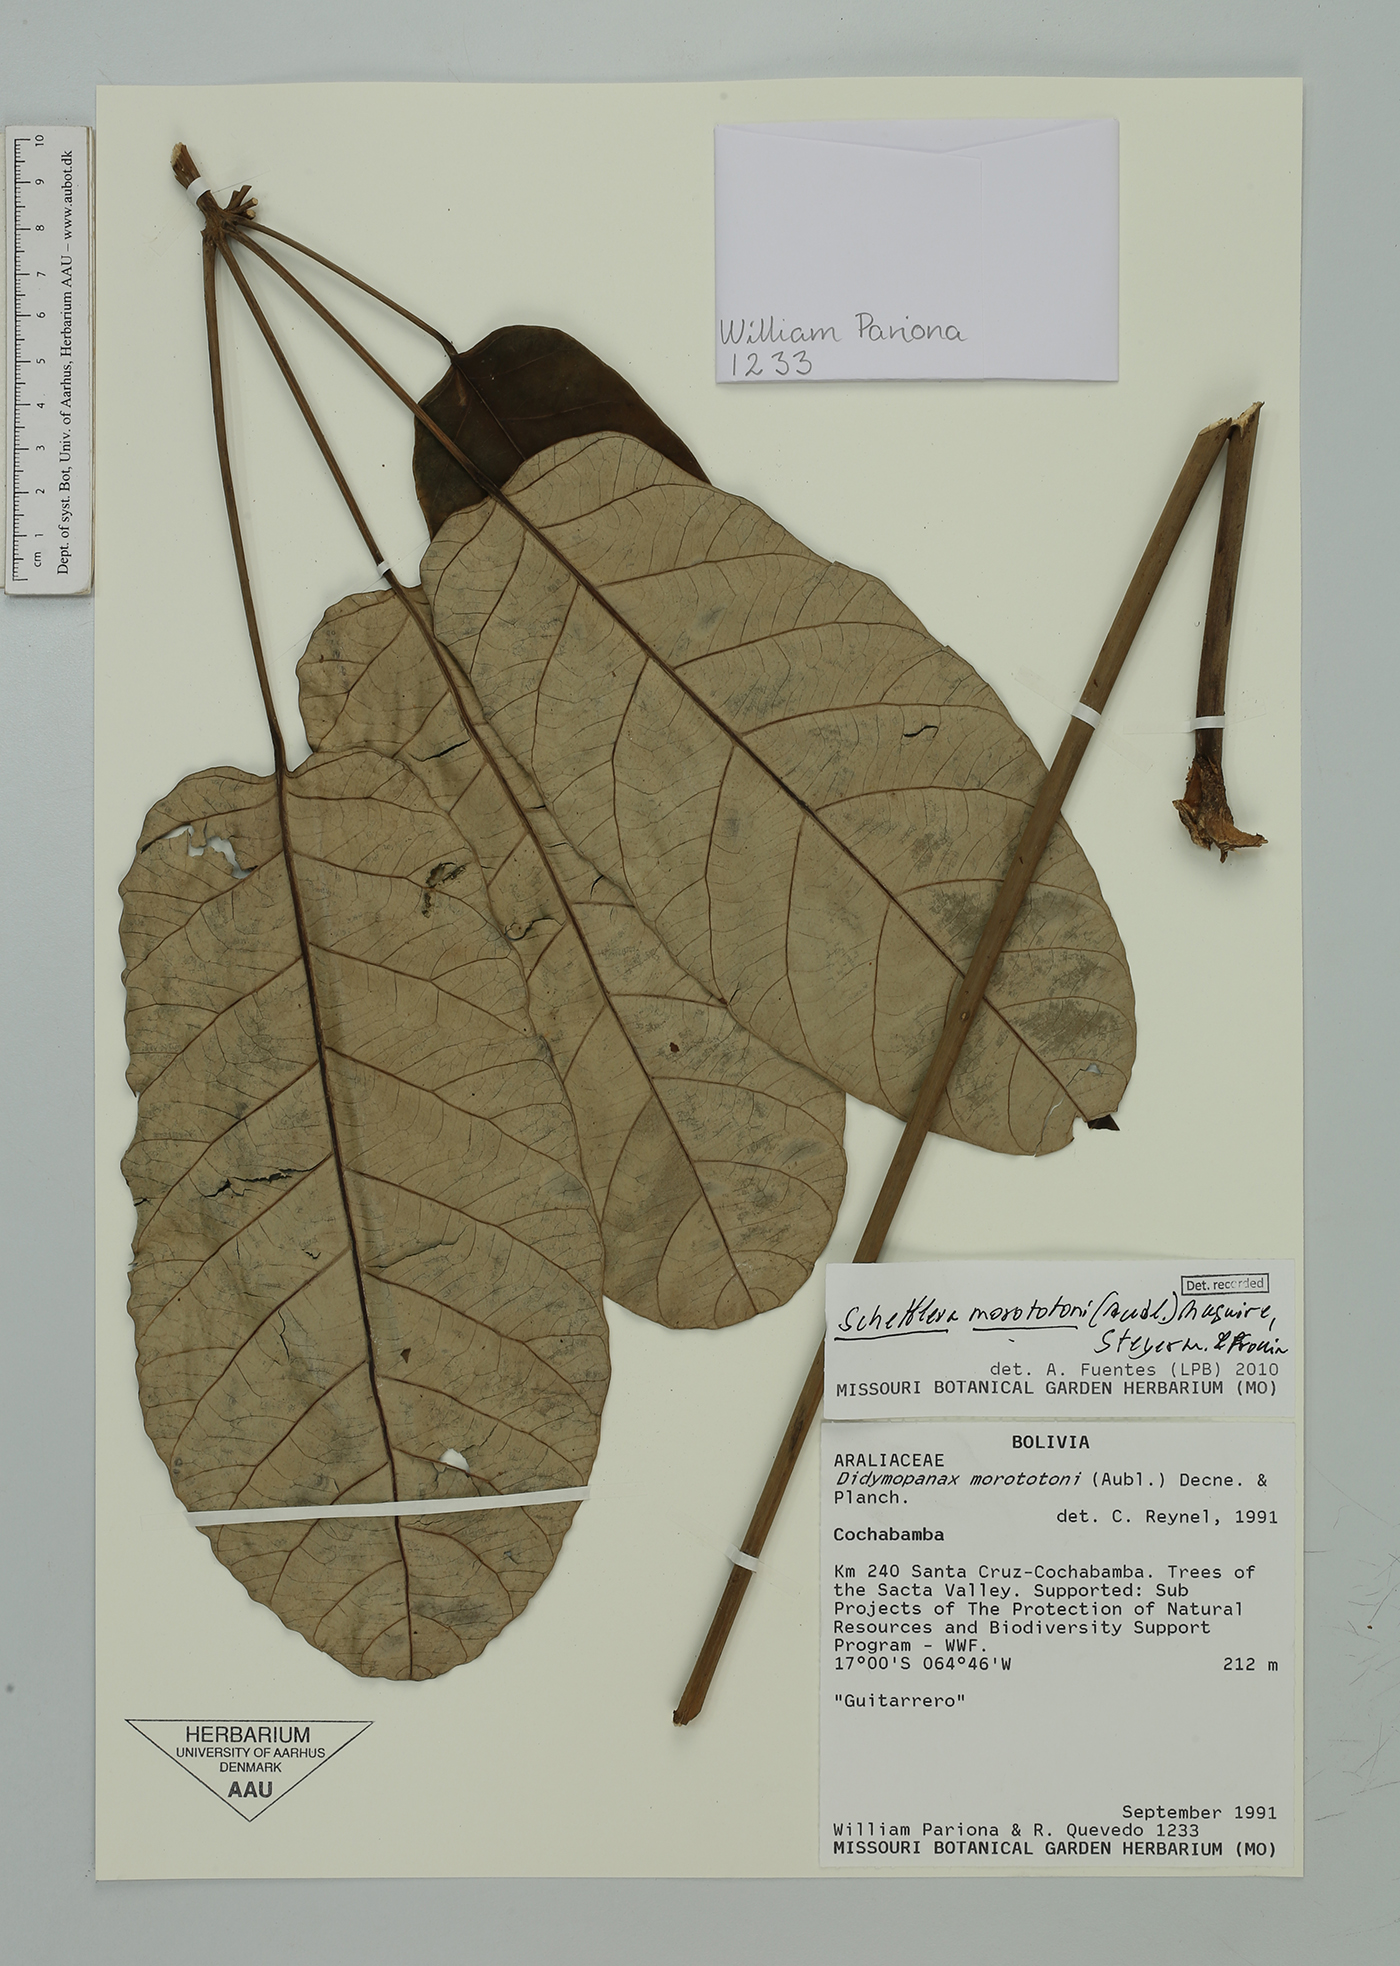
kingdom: Plantae
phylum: Tracheophyta
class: Magnoliopsida
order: Apiales
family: Araliaceae
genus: Didymopanax
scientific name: Didymopanax morototoni
